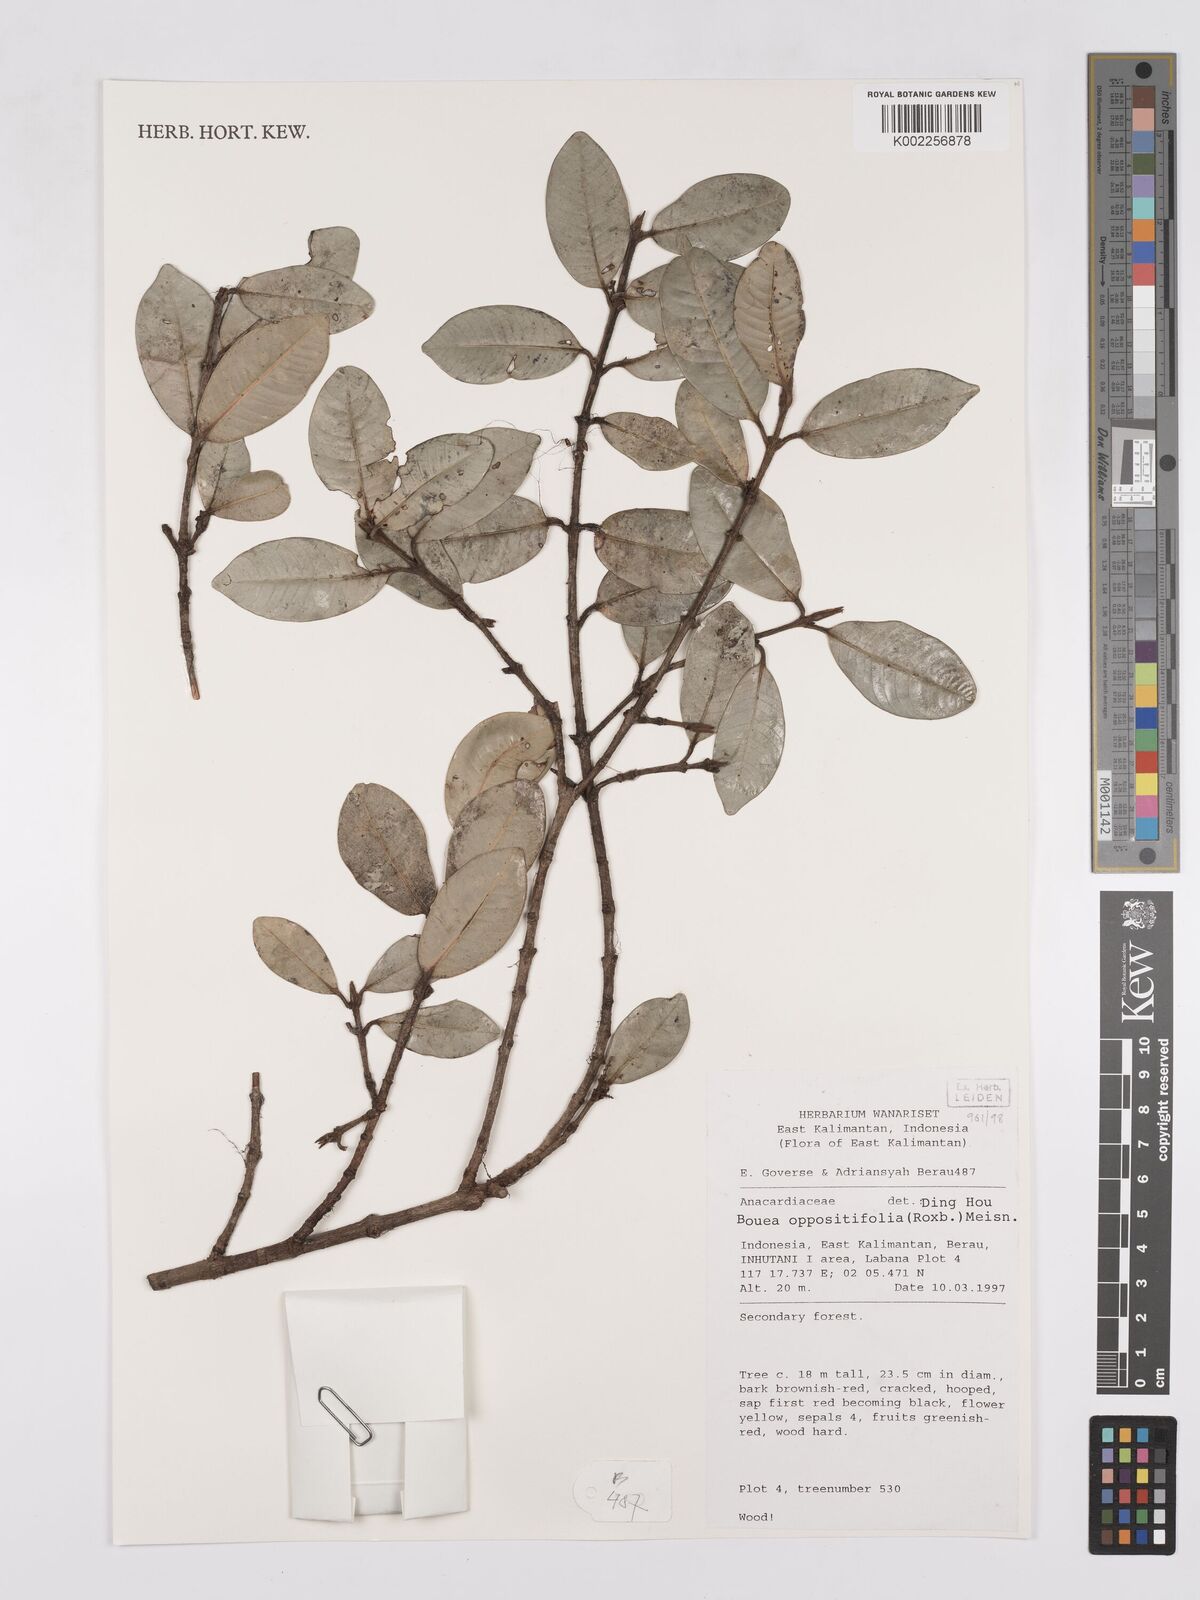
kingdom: Plantae
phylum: Tracheophyta
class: Magnoliopsida
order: Sapindales
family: Anacardiaceae
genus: Bouea
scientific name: Bouea oppositifolia
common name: Narrow-leaved kundang
